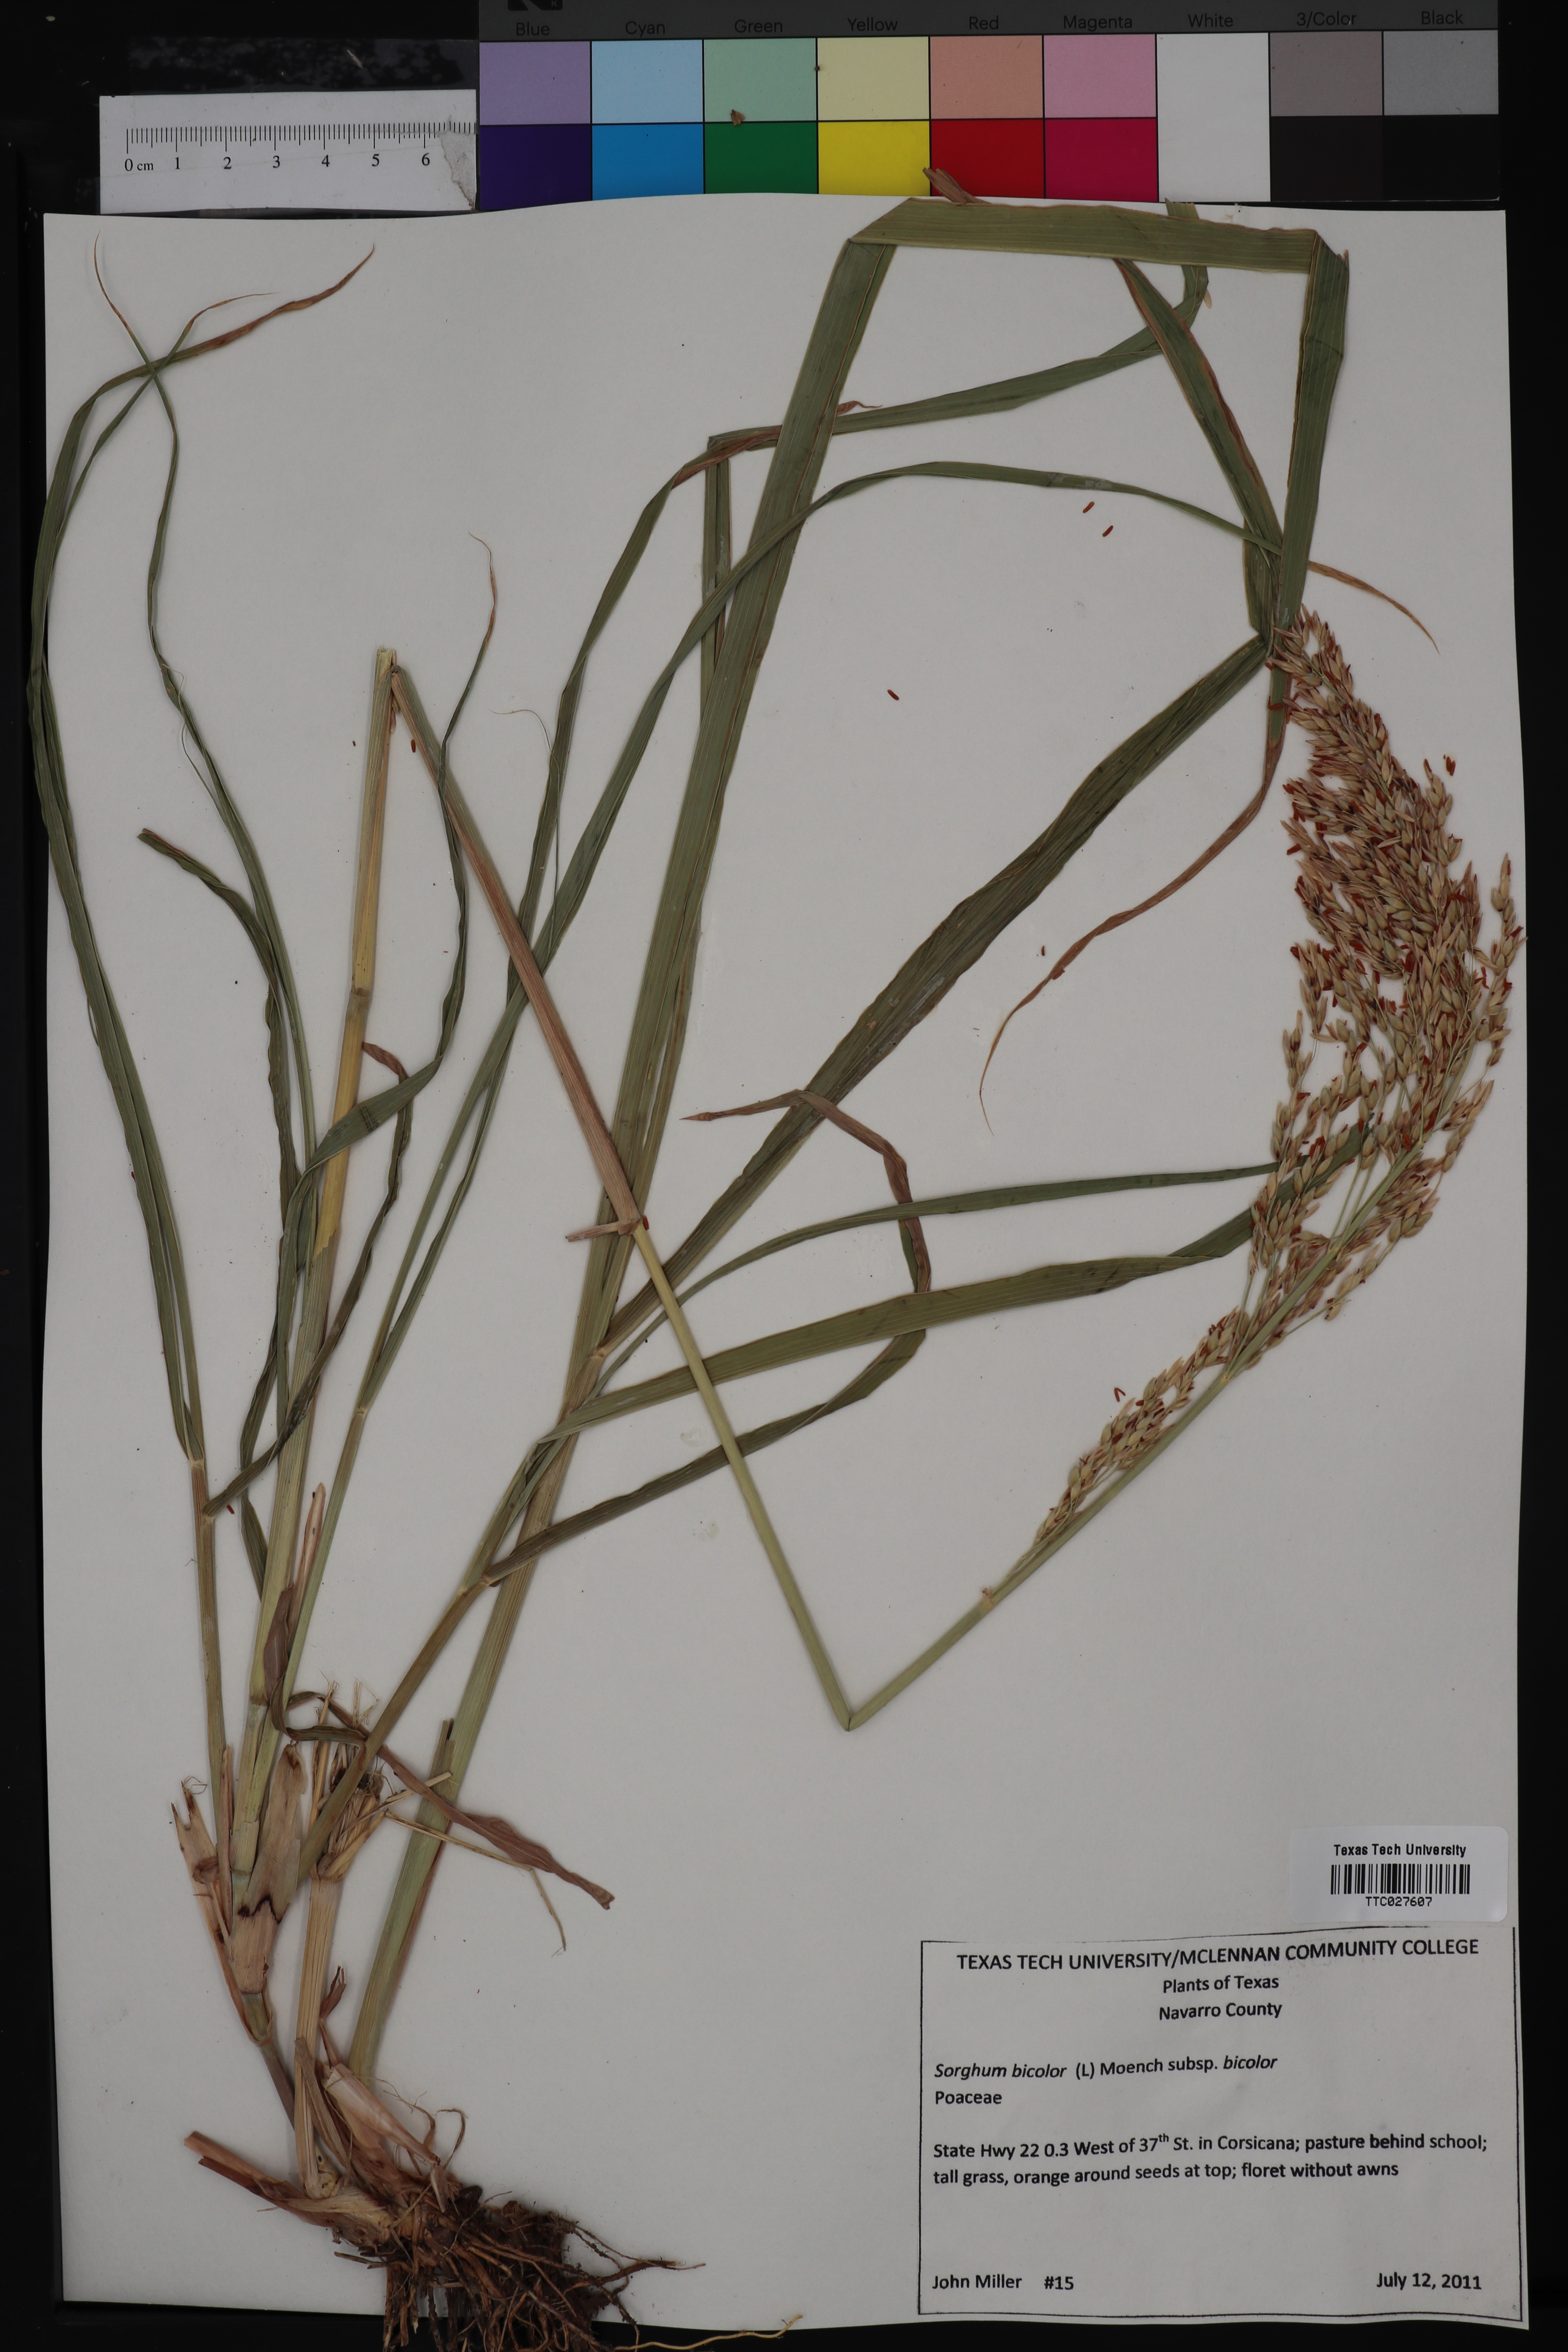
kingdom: Plantae
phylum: Tracheophyta
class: Liliopsida
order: Poales
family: Poaceae
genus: Sorghum
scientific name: Sorghum bicolor
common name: Sorghum
